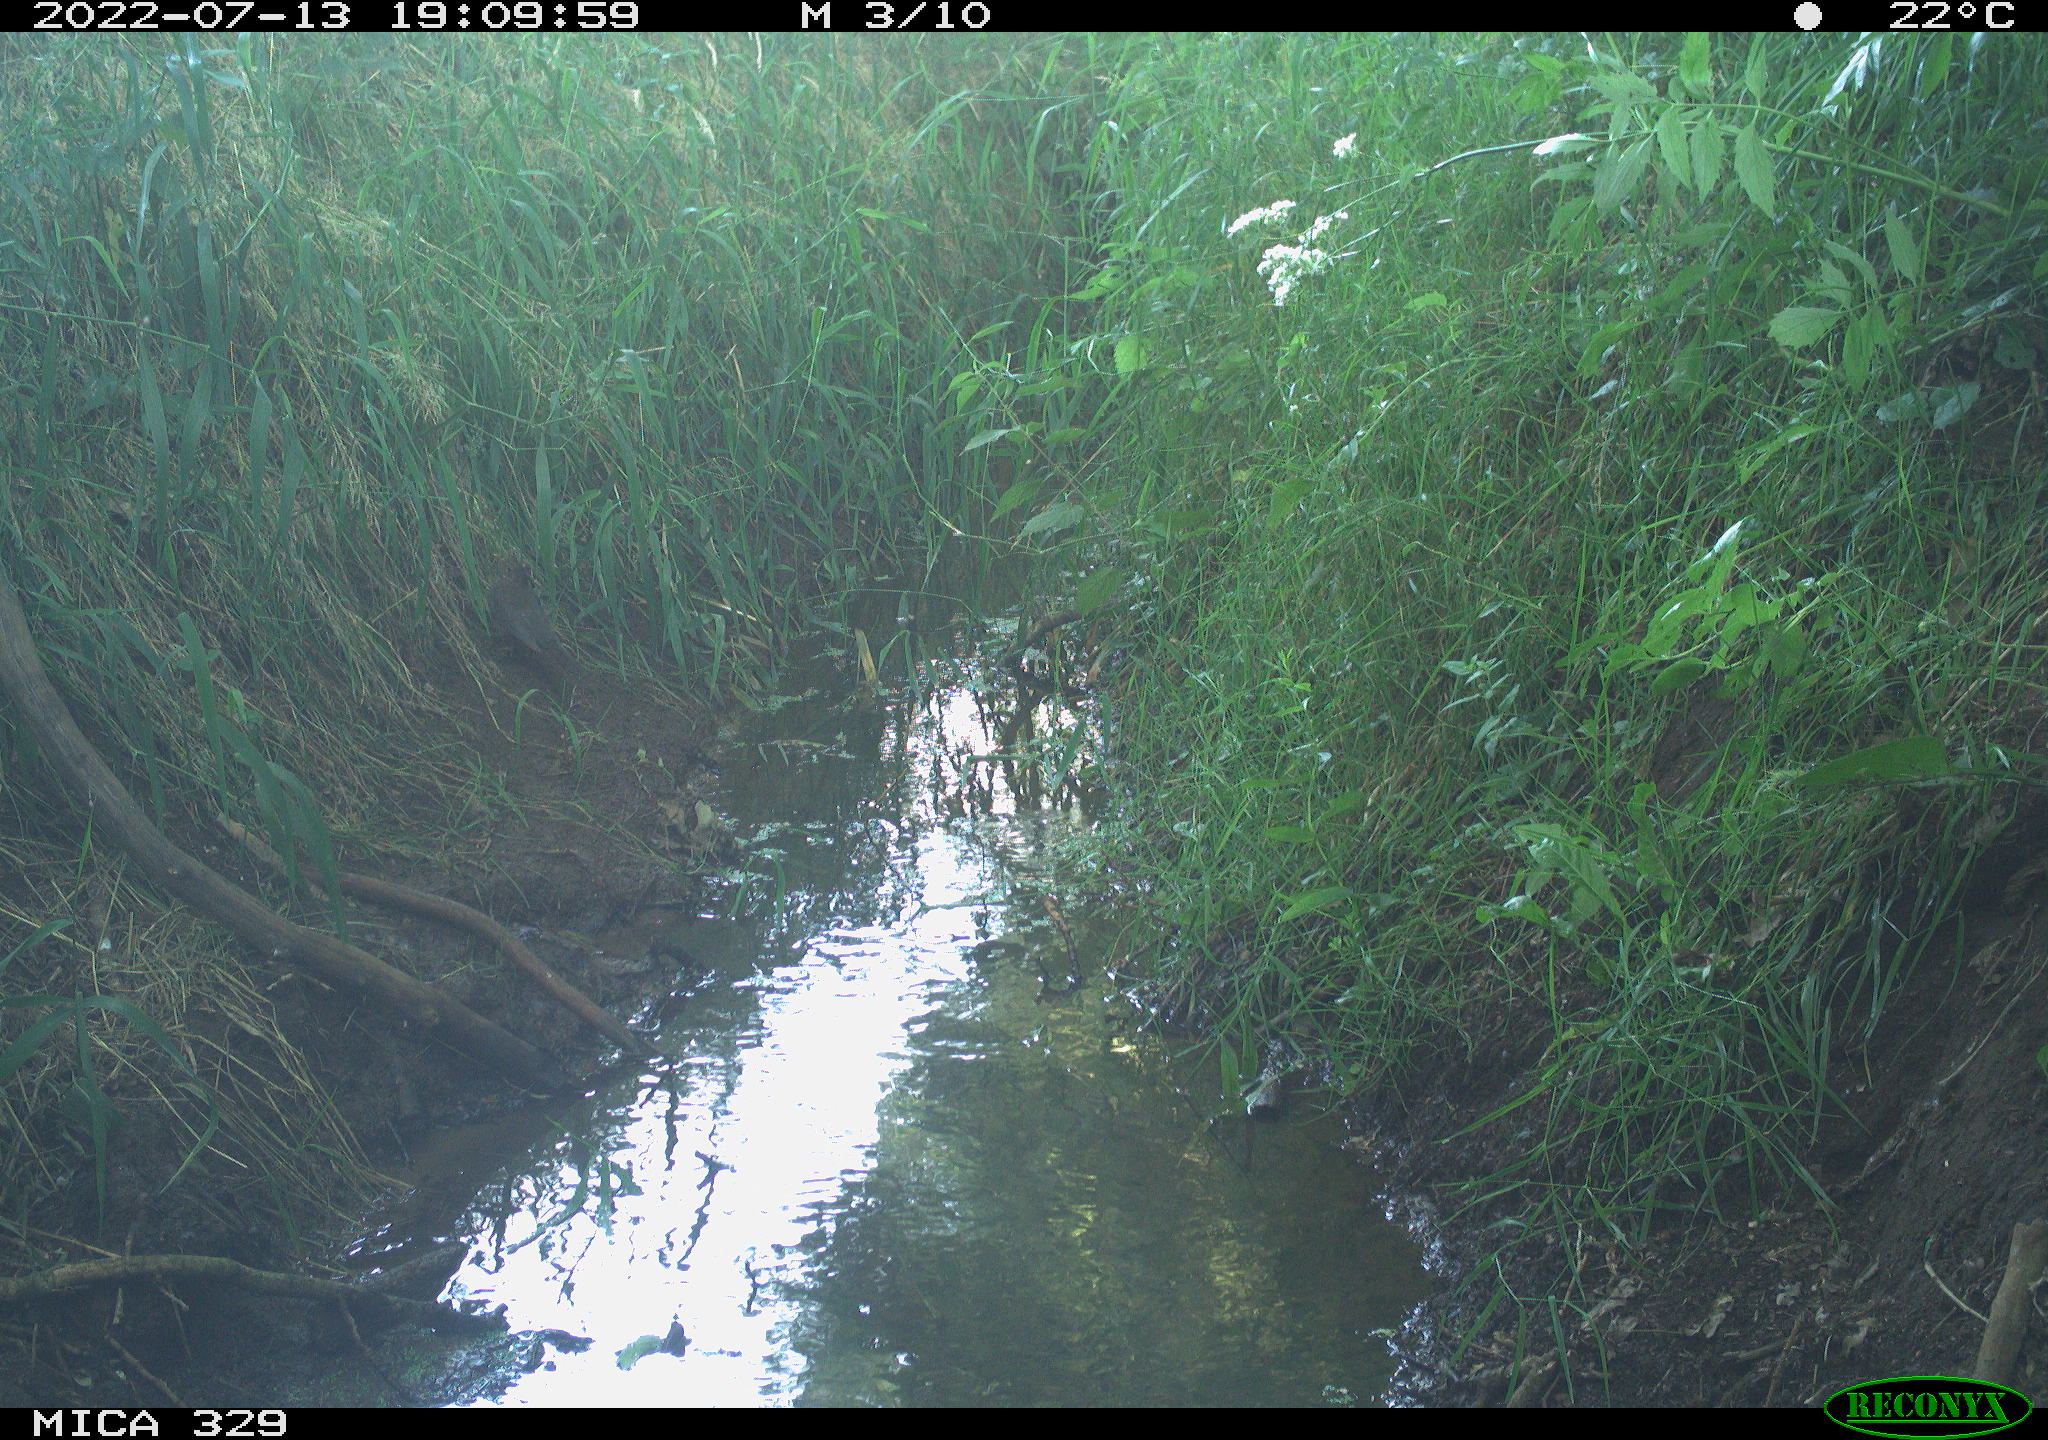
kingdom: Animalia
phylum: Chordata
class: Aves
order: Passeriformes
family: Turdidae
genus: Turdus
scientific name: Turdus merula
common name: Common blackbird
